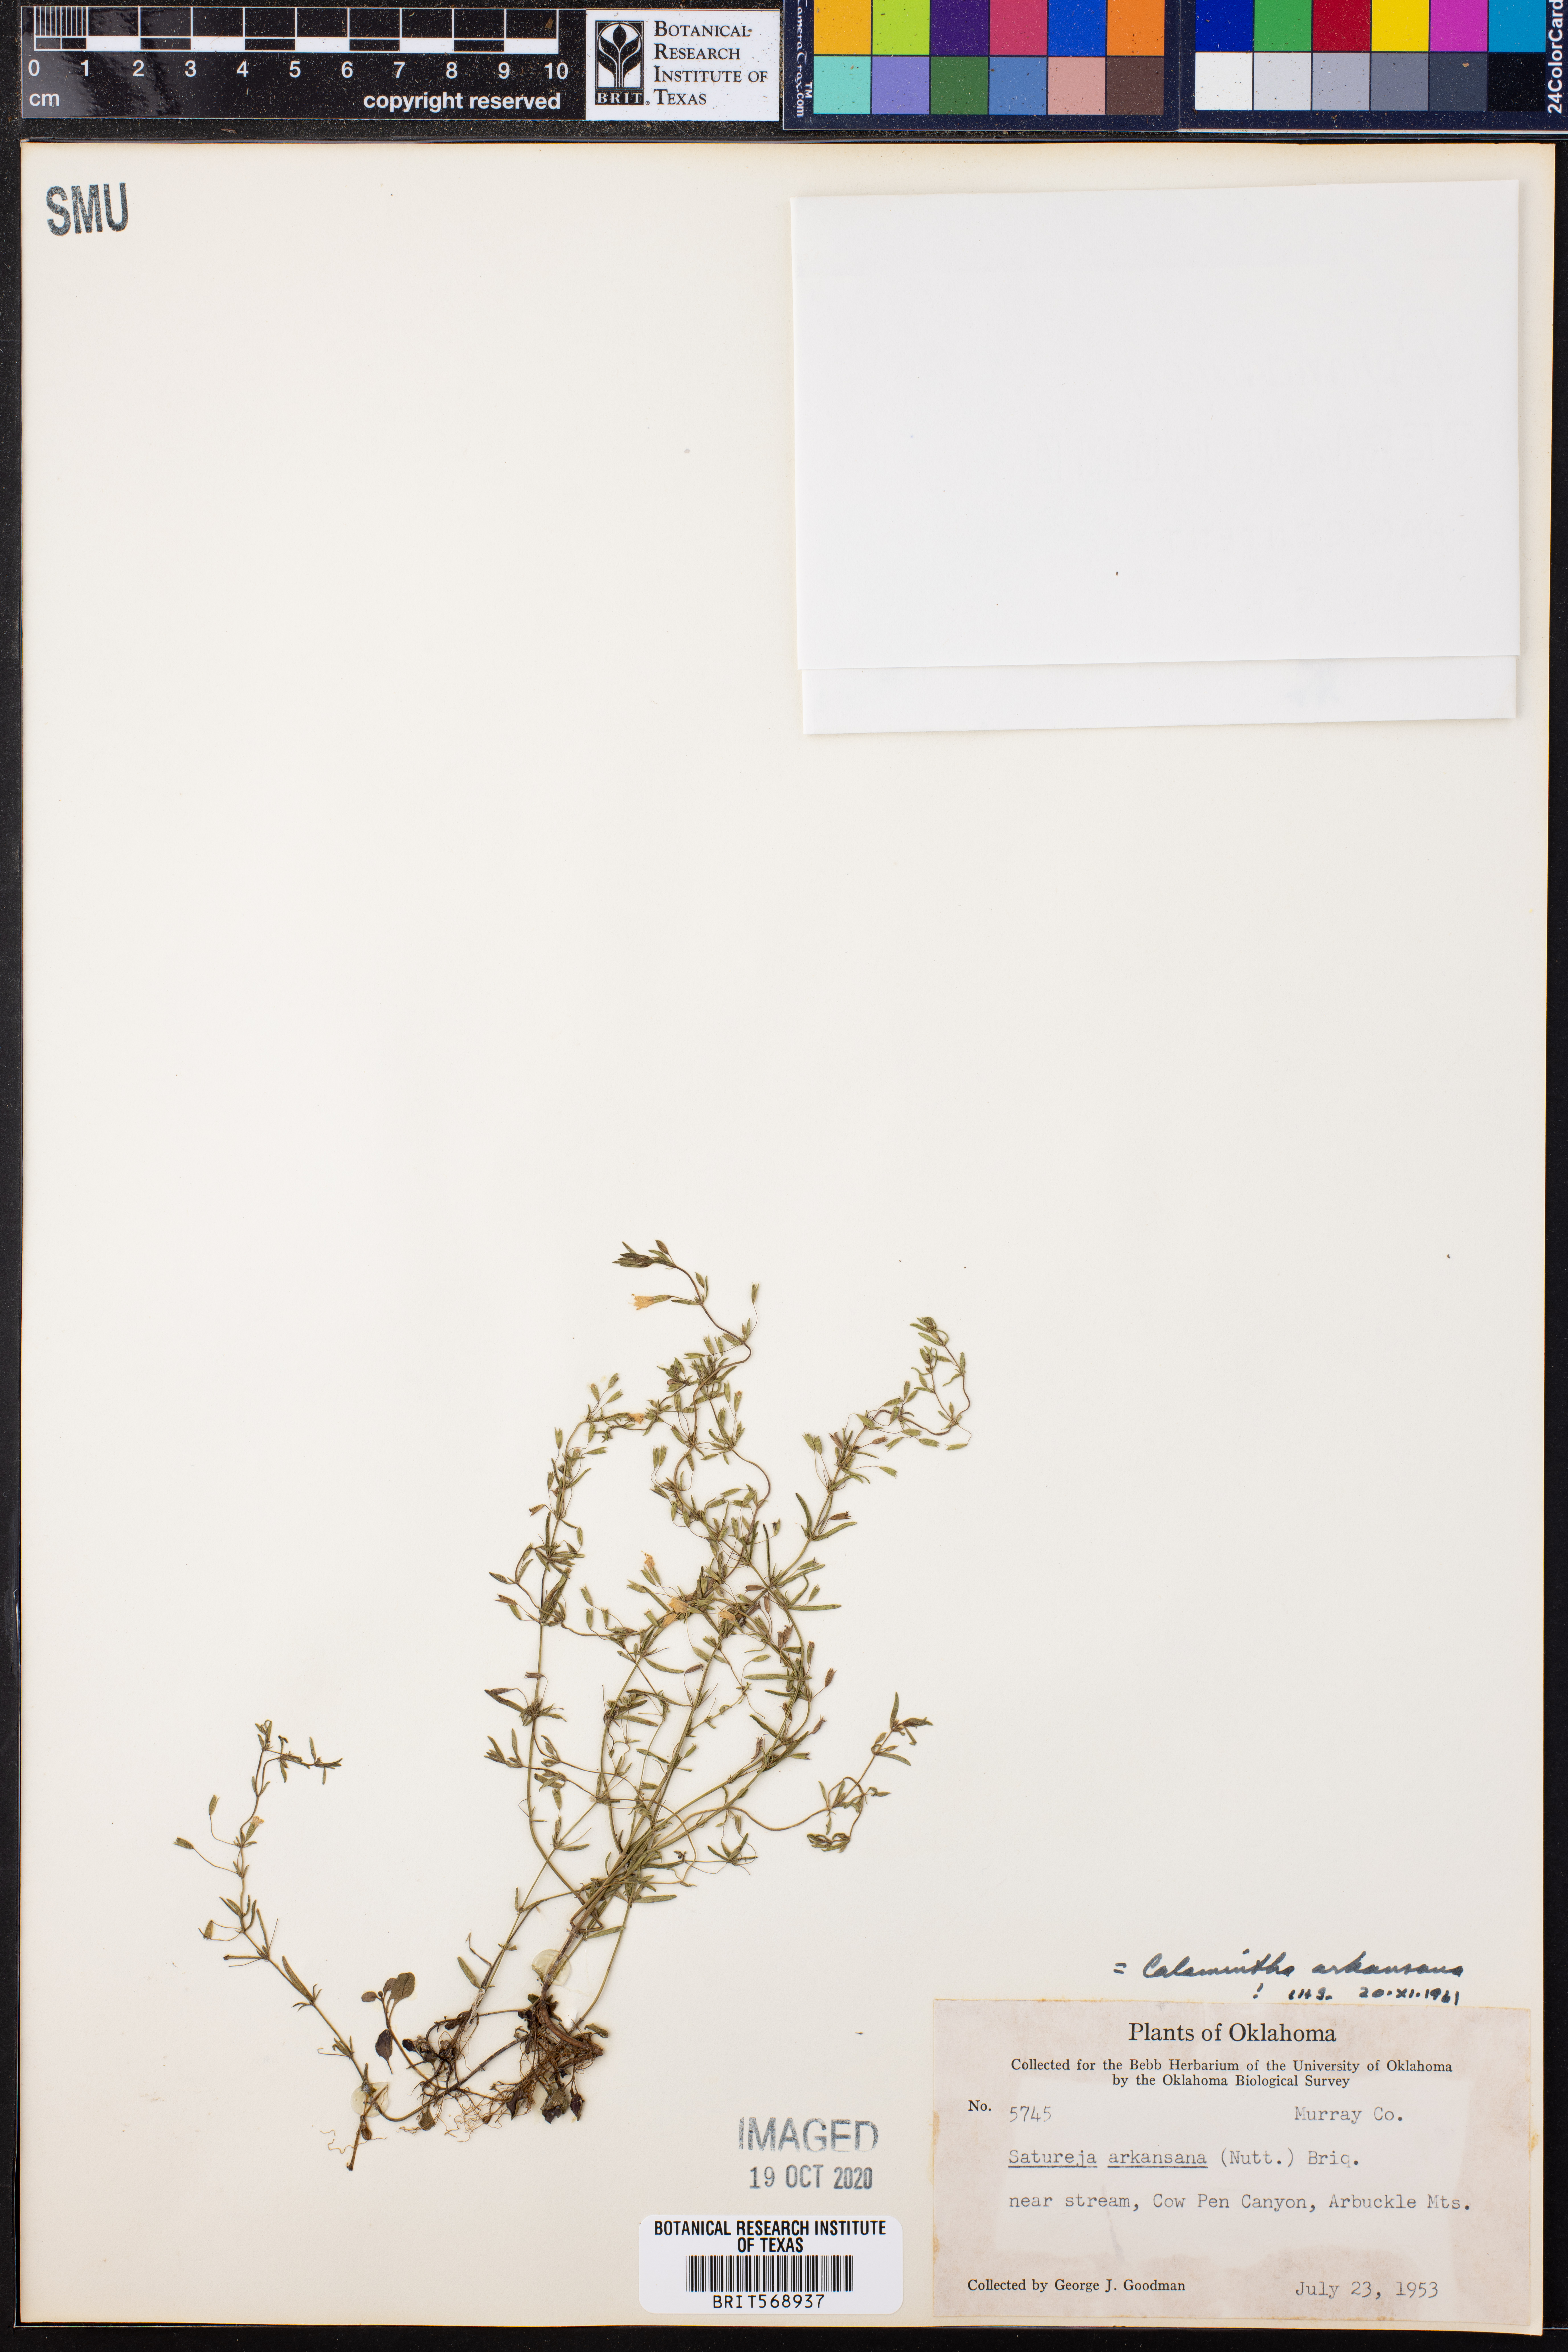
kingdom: Plantae
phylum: Tracheophyta
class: Magnoliopsida
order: Lamiales
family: Lamiaceae
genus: Clinopodium
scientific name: Clinopodium arkansanum
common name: Limestone calamint
